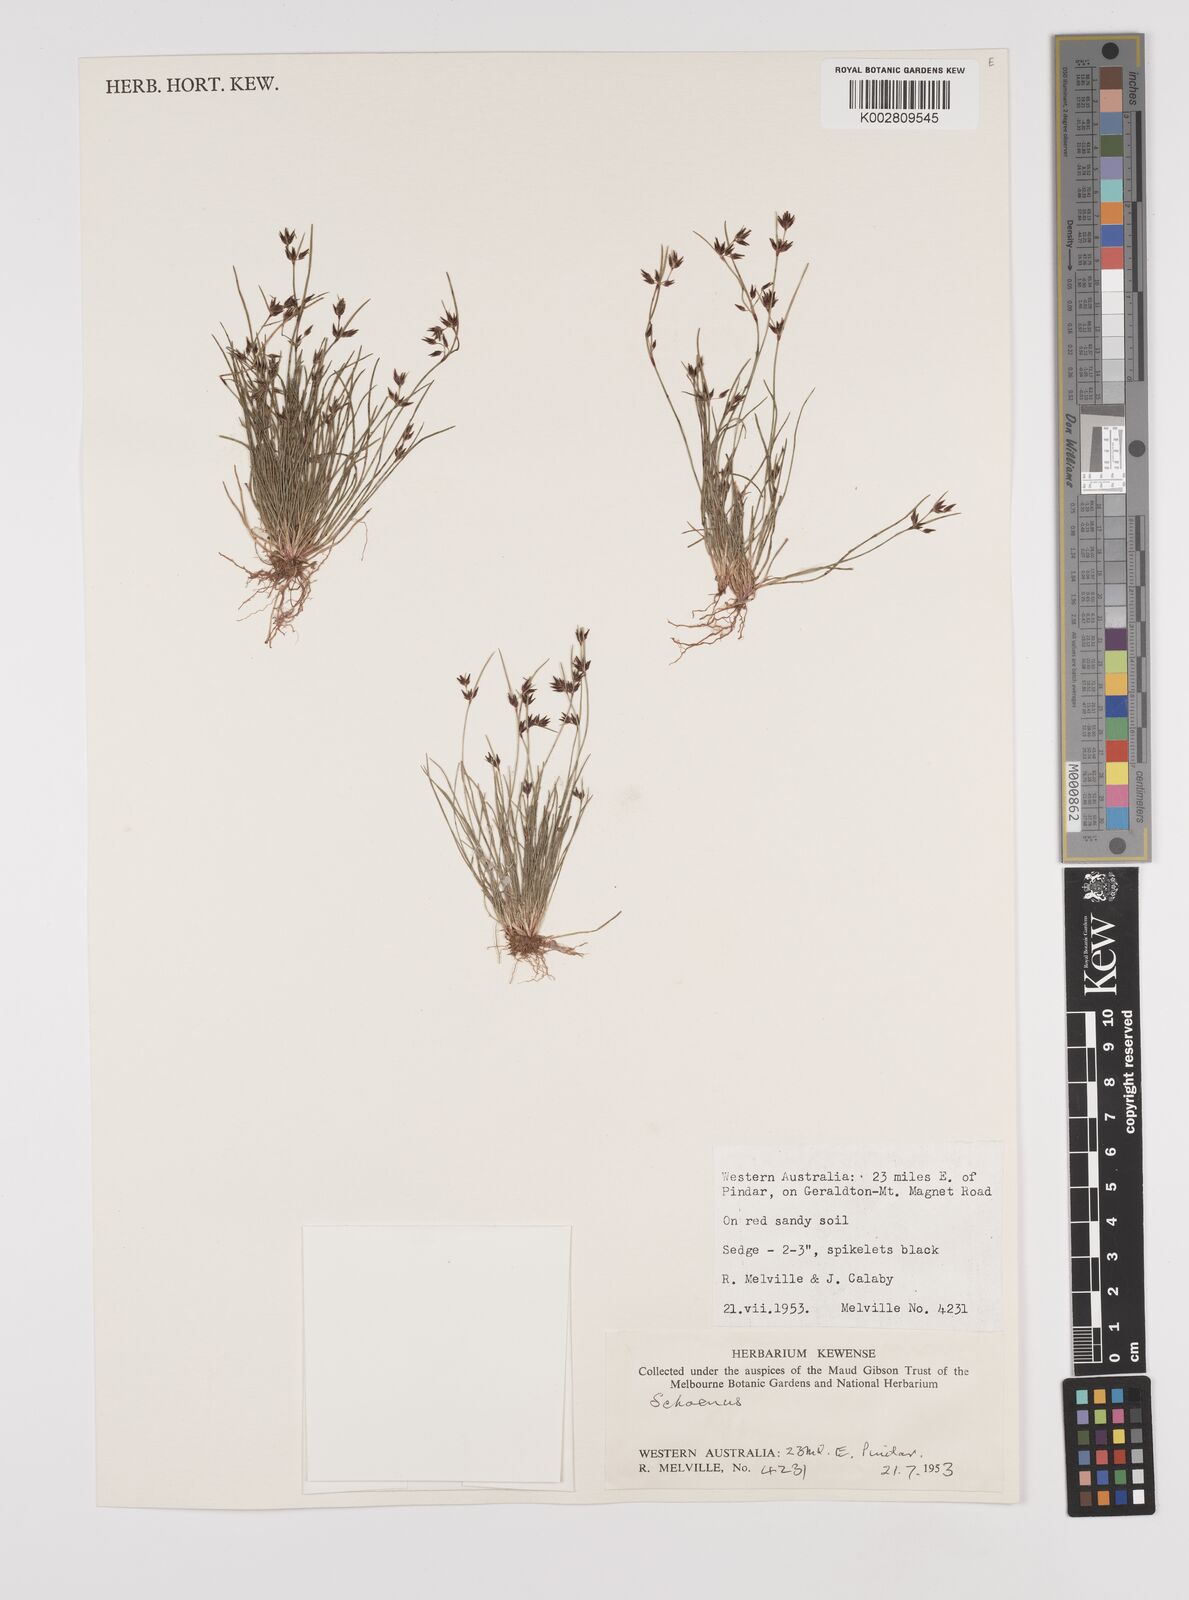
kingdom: Plantae
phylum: Tracheophyta
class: Liliopsida
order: Poales
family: Cyperaceae
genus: Schoenus
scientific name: Schoenus
